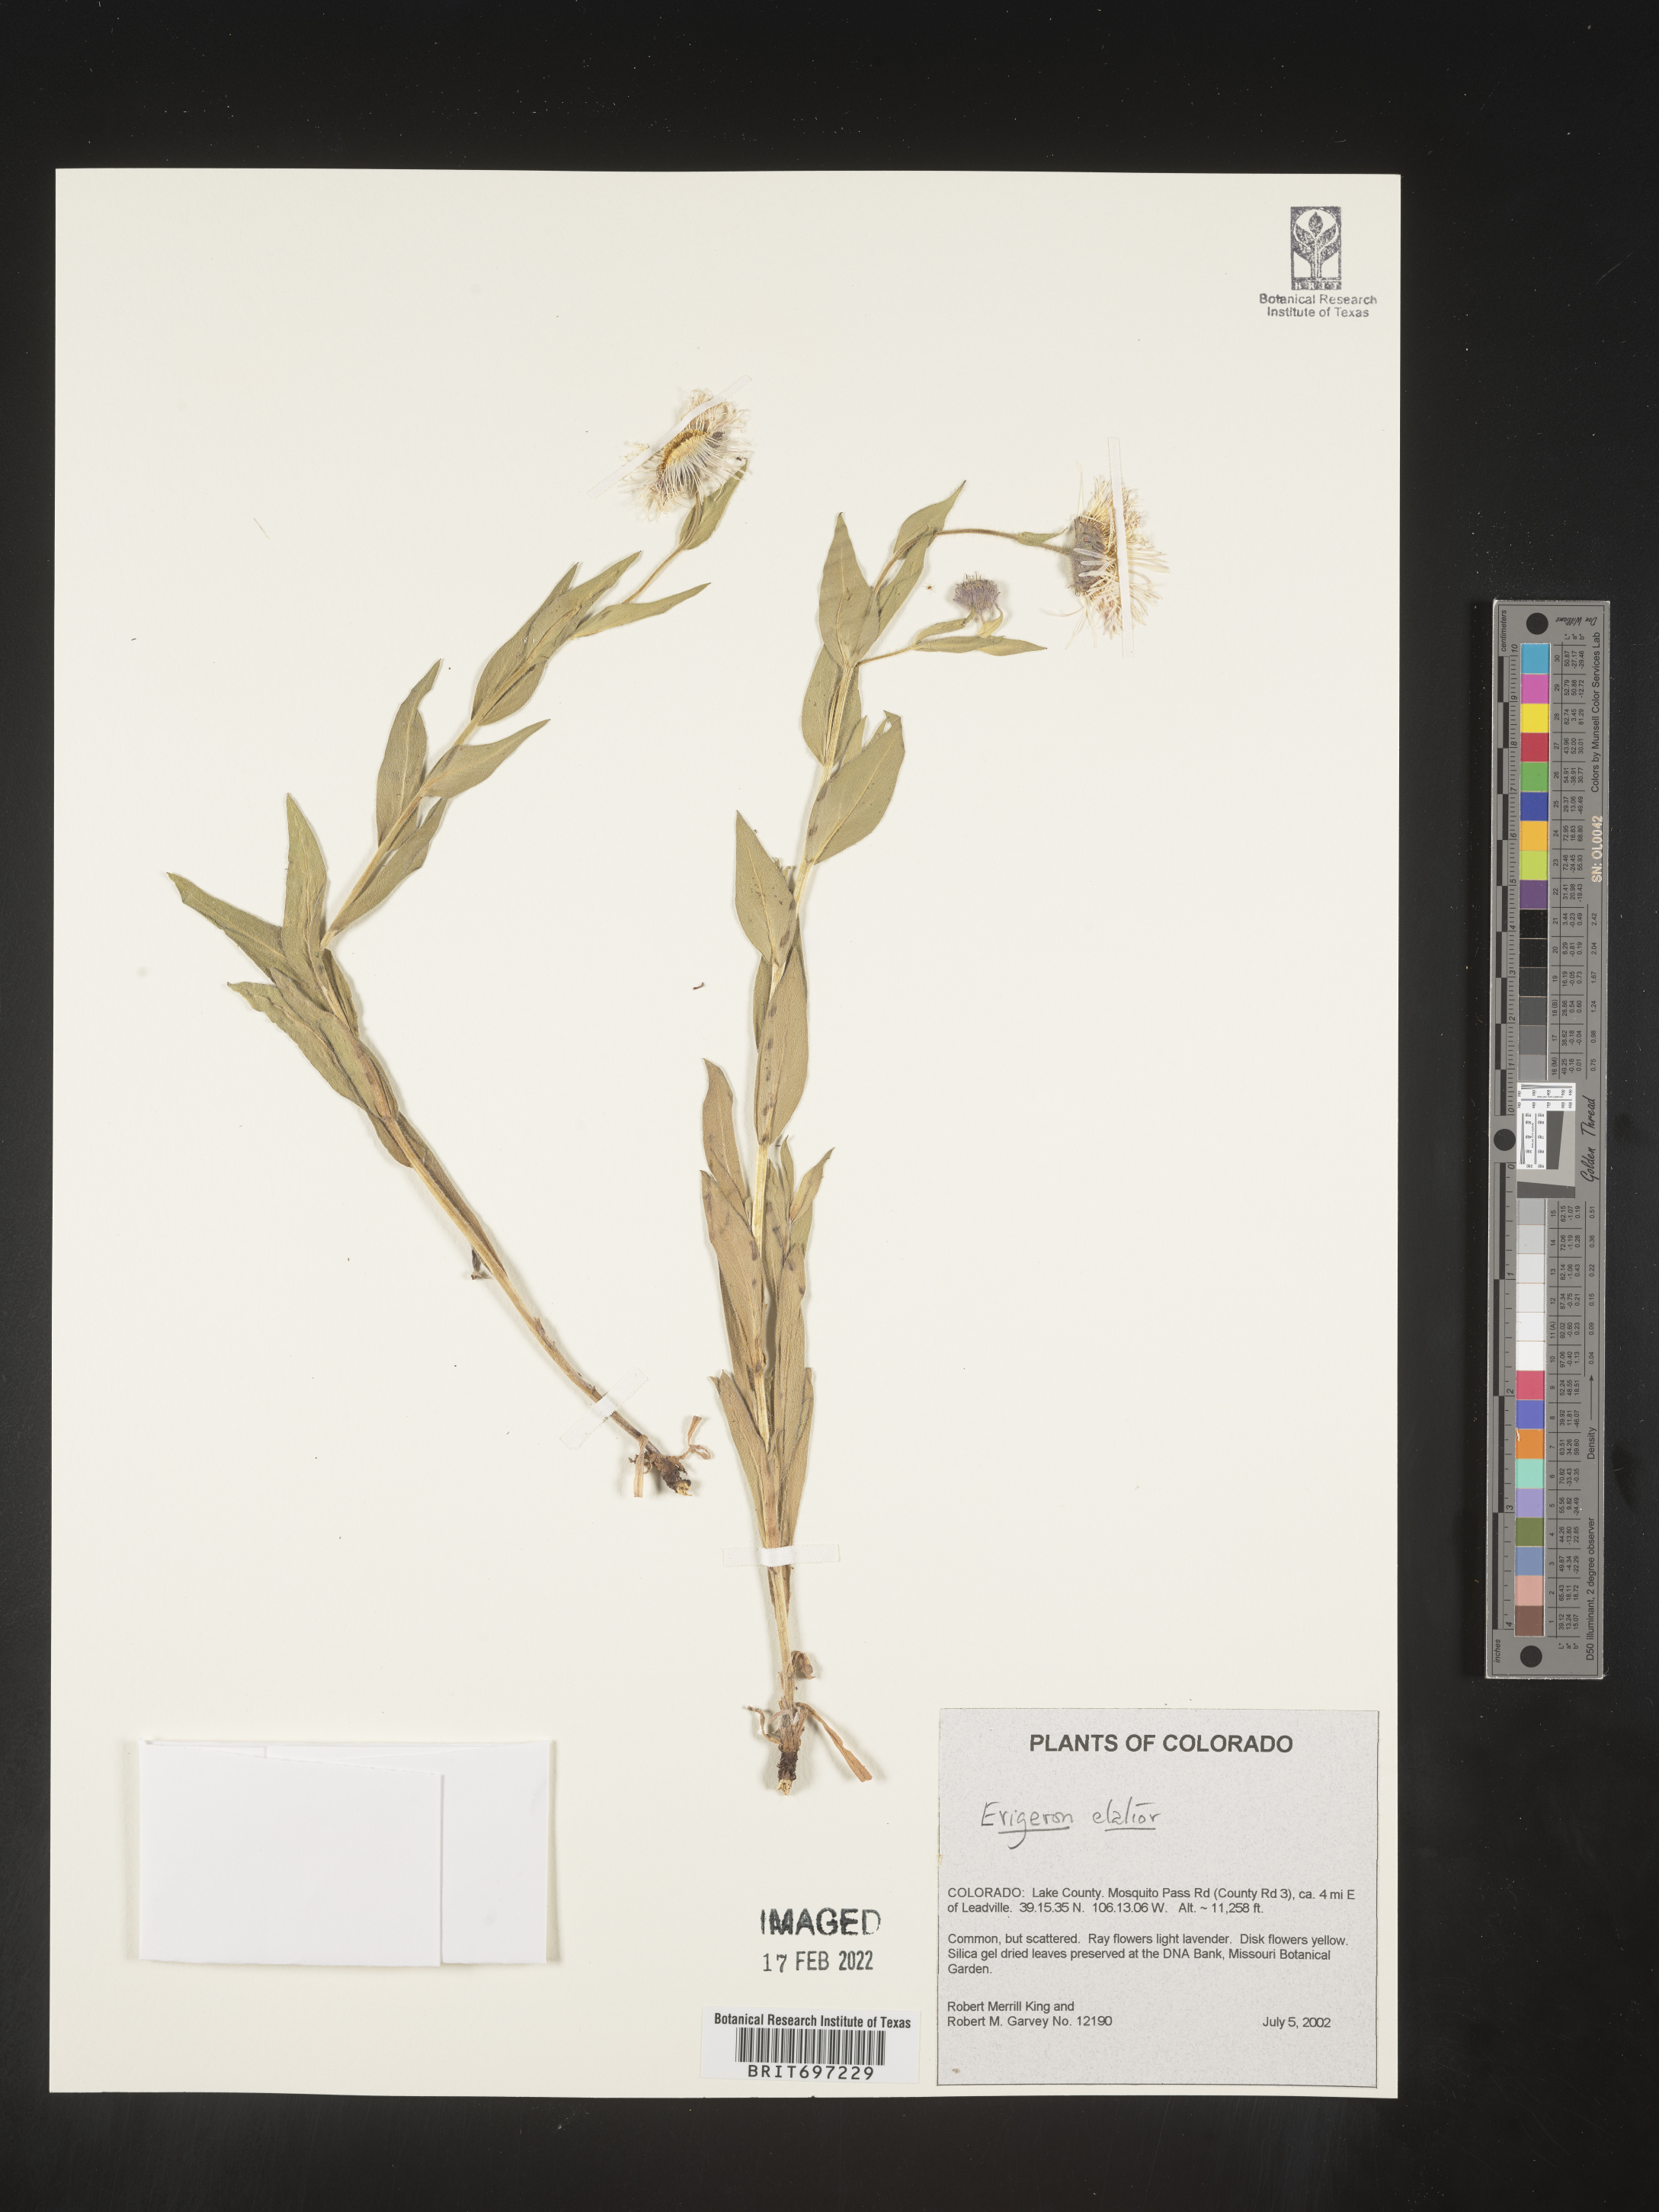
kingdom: Plantae
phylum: Tracheophyta
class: Magnoliopsida
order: Asterales
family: Asteraceae
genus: Erigeron
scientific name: Erigeron elatior
